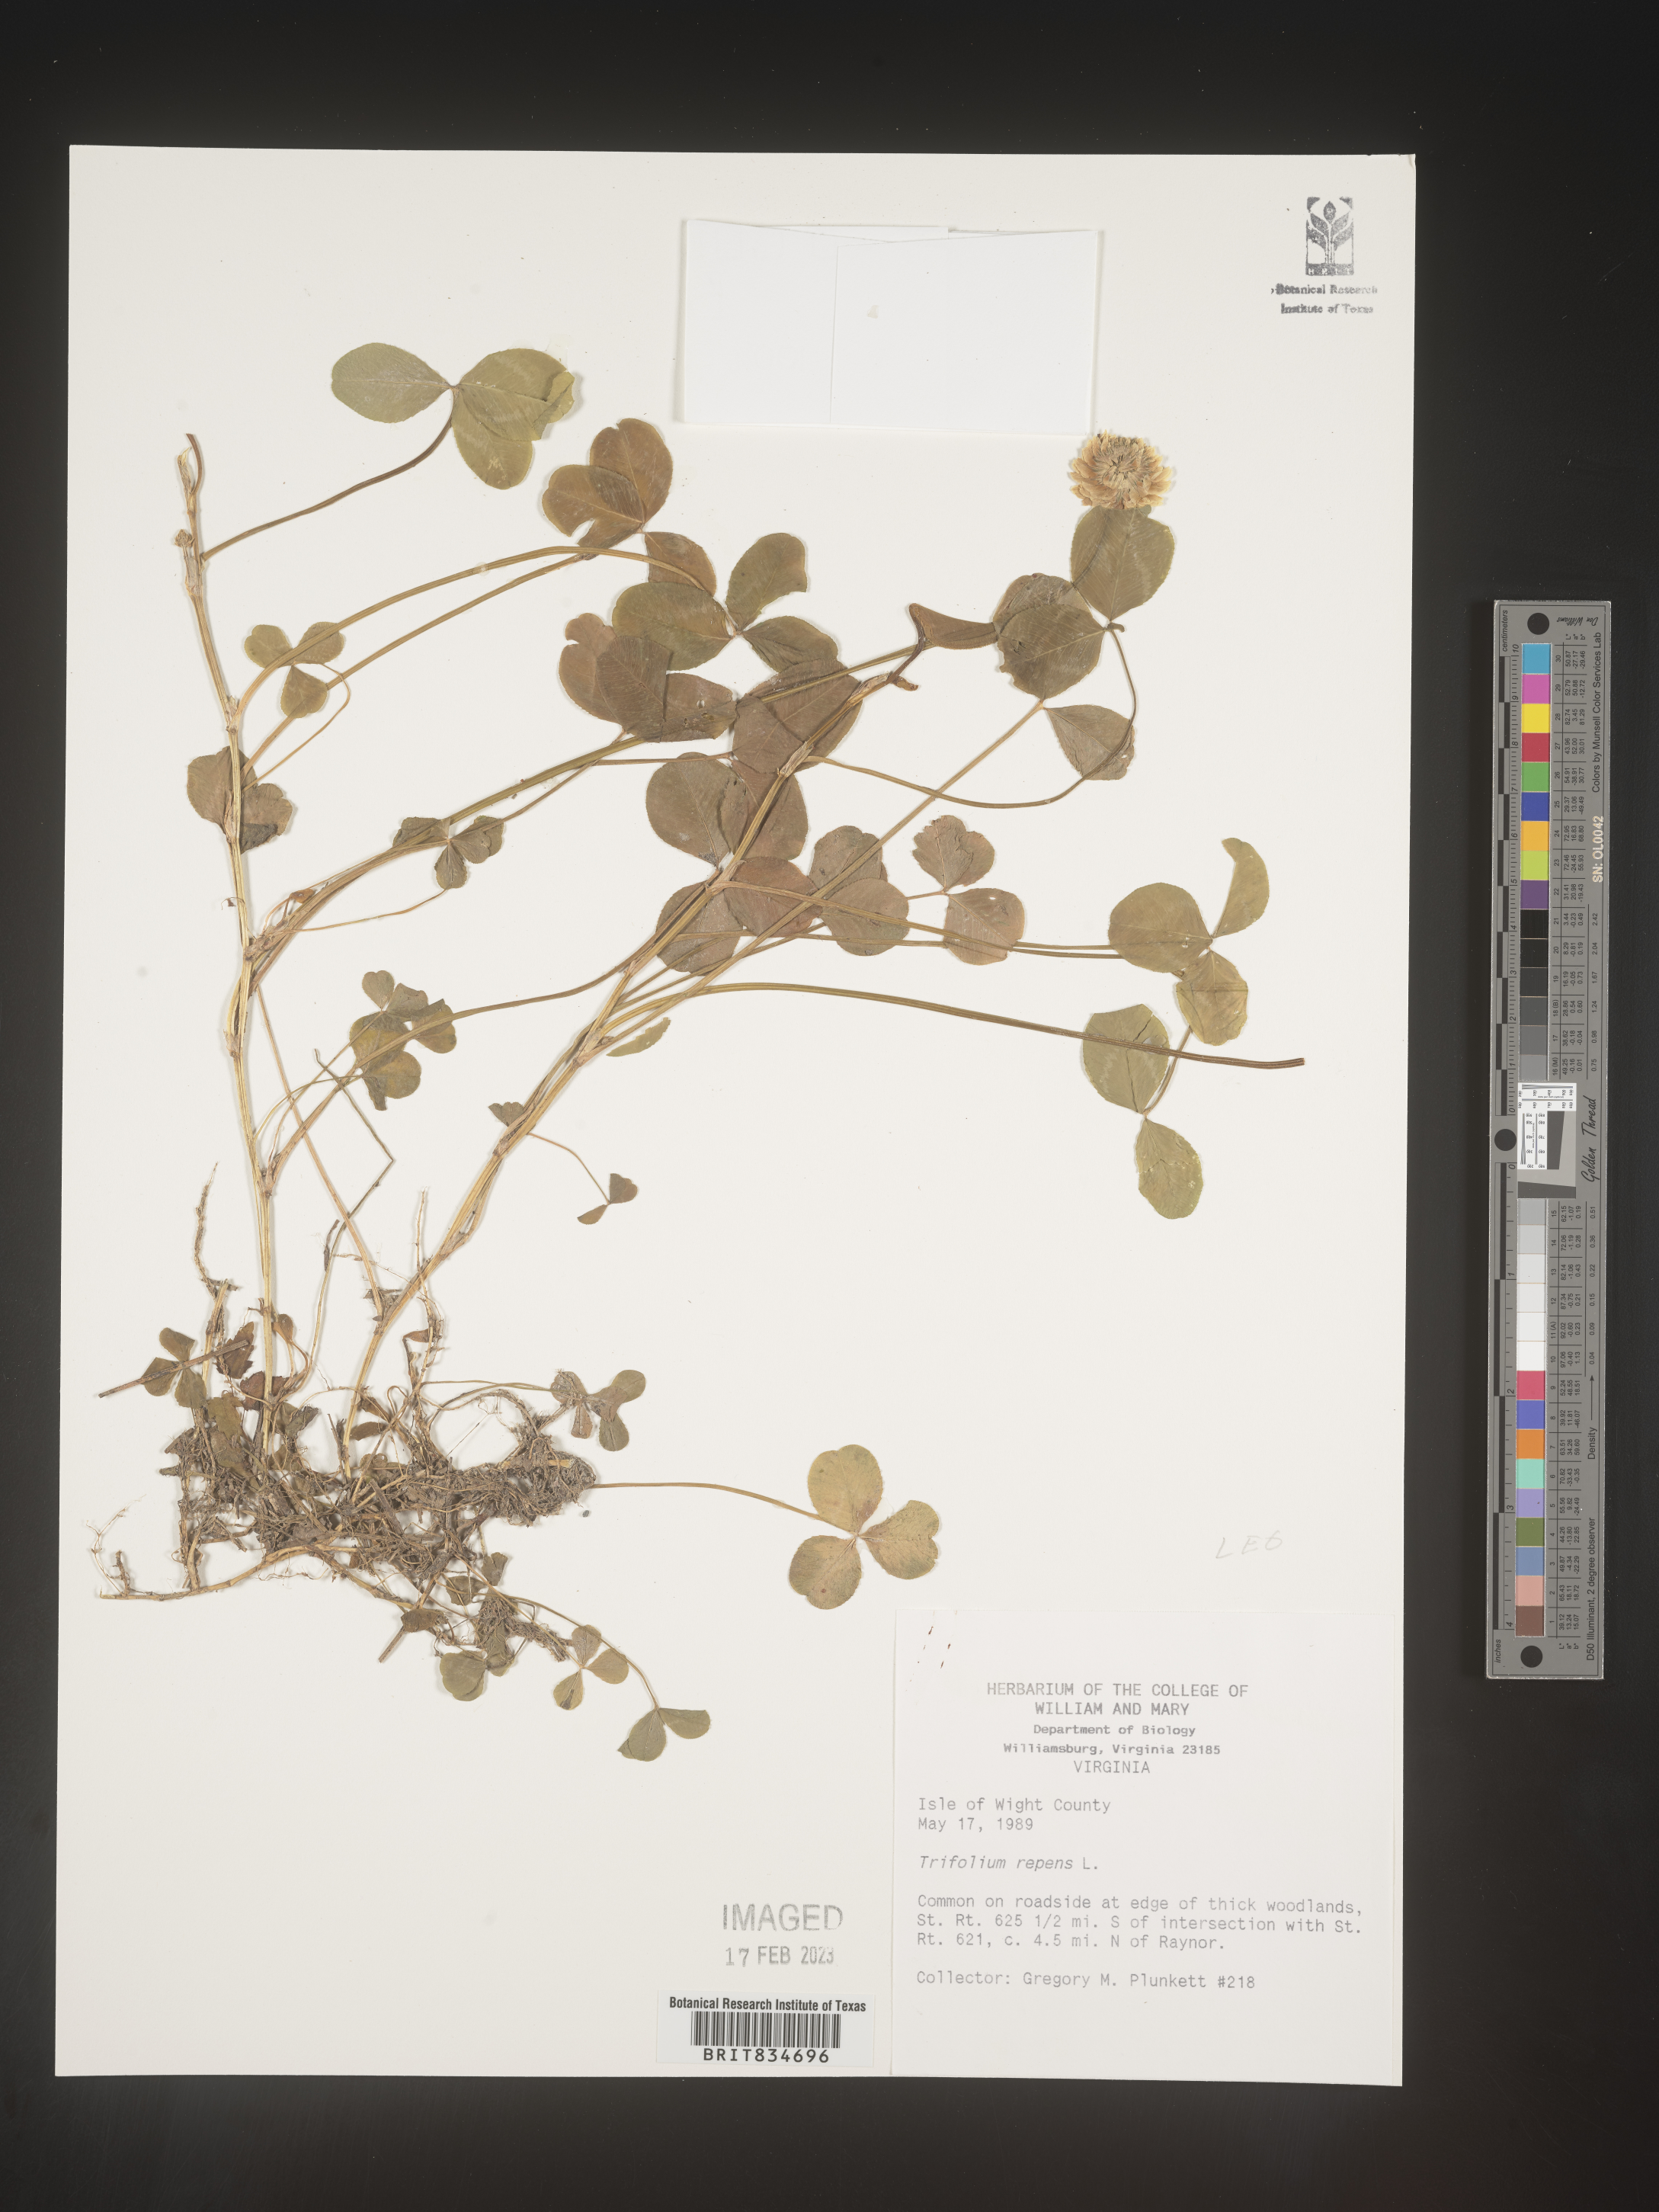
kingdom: Plantae
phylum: Tracheophyta
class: Magnoliopsida
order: Fabales
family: Fabaceae
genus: Trifolium
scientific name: Trifolium repens
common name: White clover
